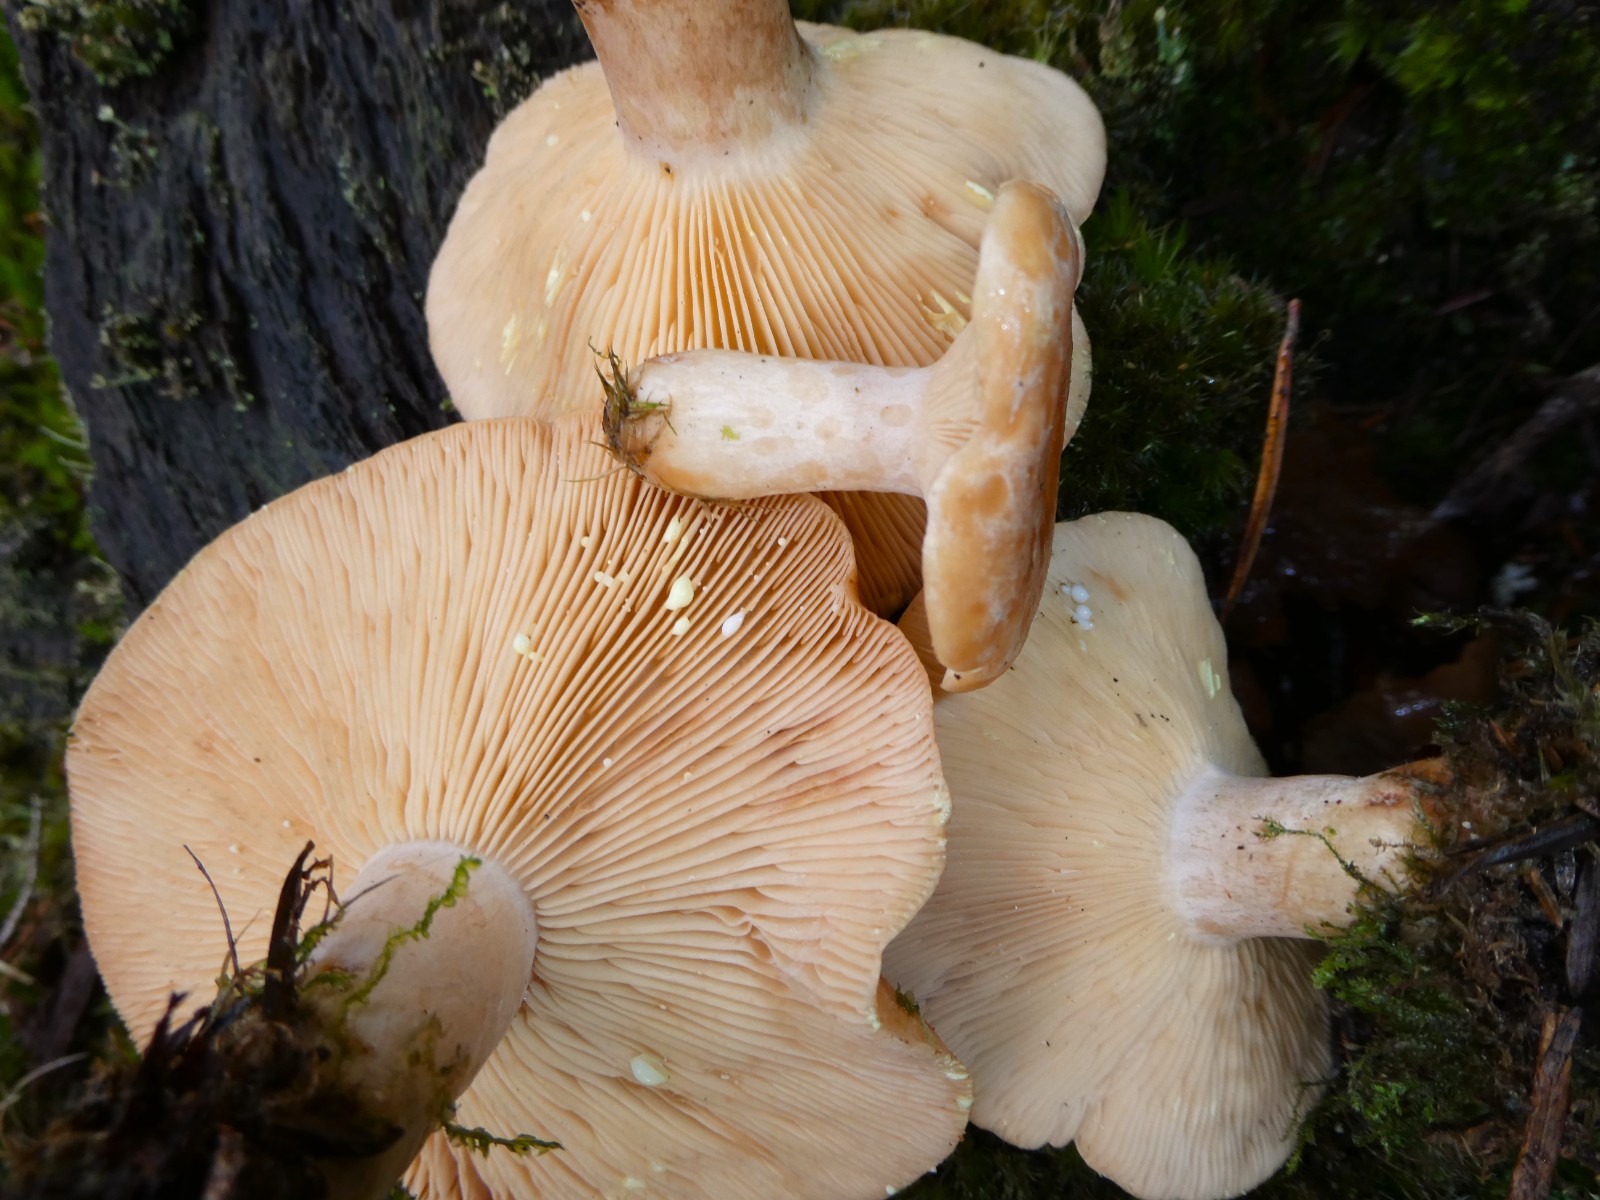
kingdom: Fungi
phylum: Basidiomycota
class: Agaricomycetes
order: Russulales
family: Russulaceae
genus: Lactarius
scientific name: Lactarius chrysorrheus
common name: svovlmælket mælkehat
